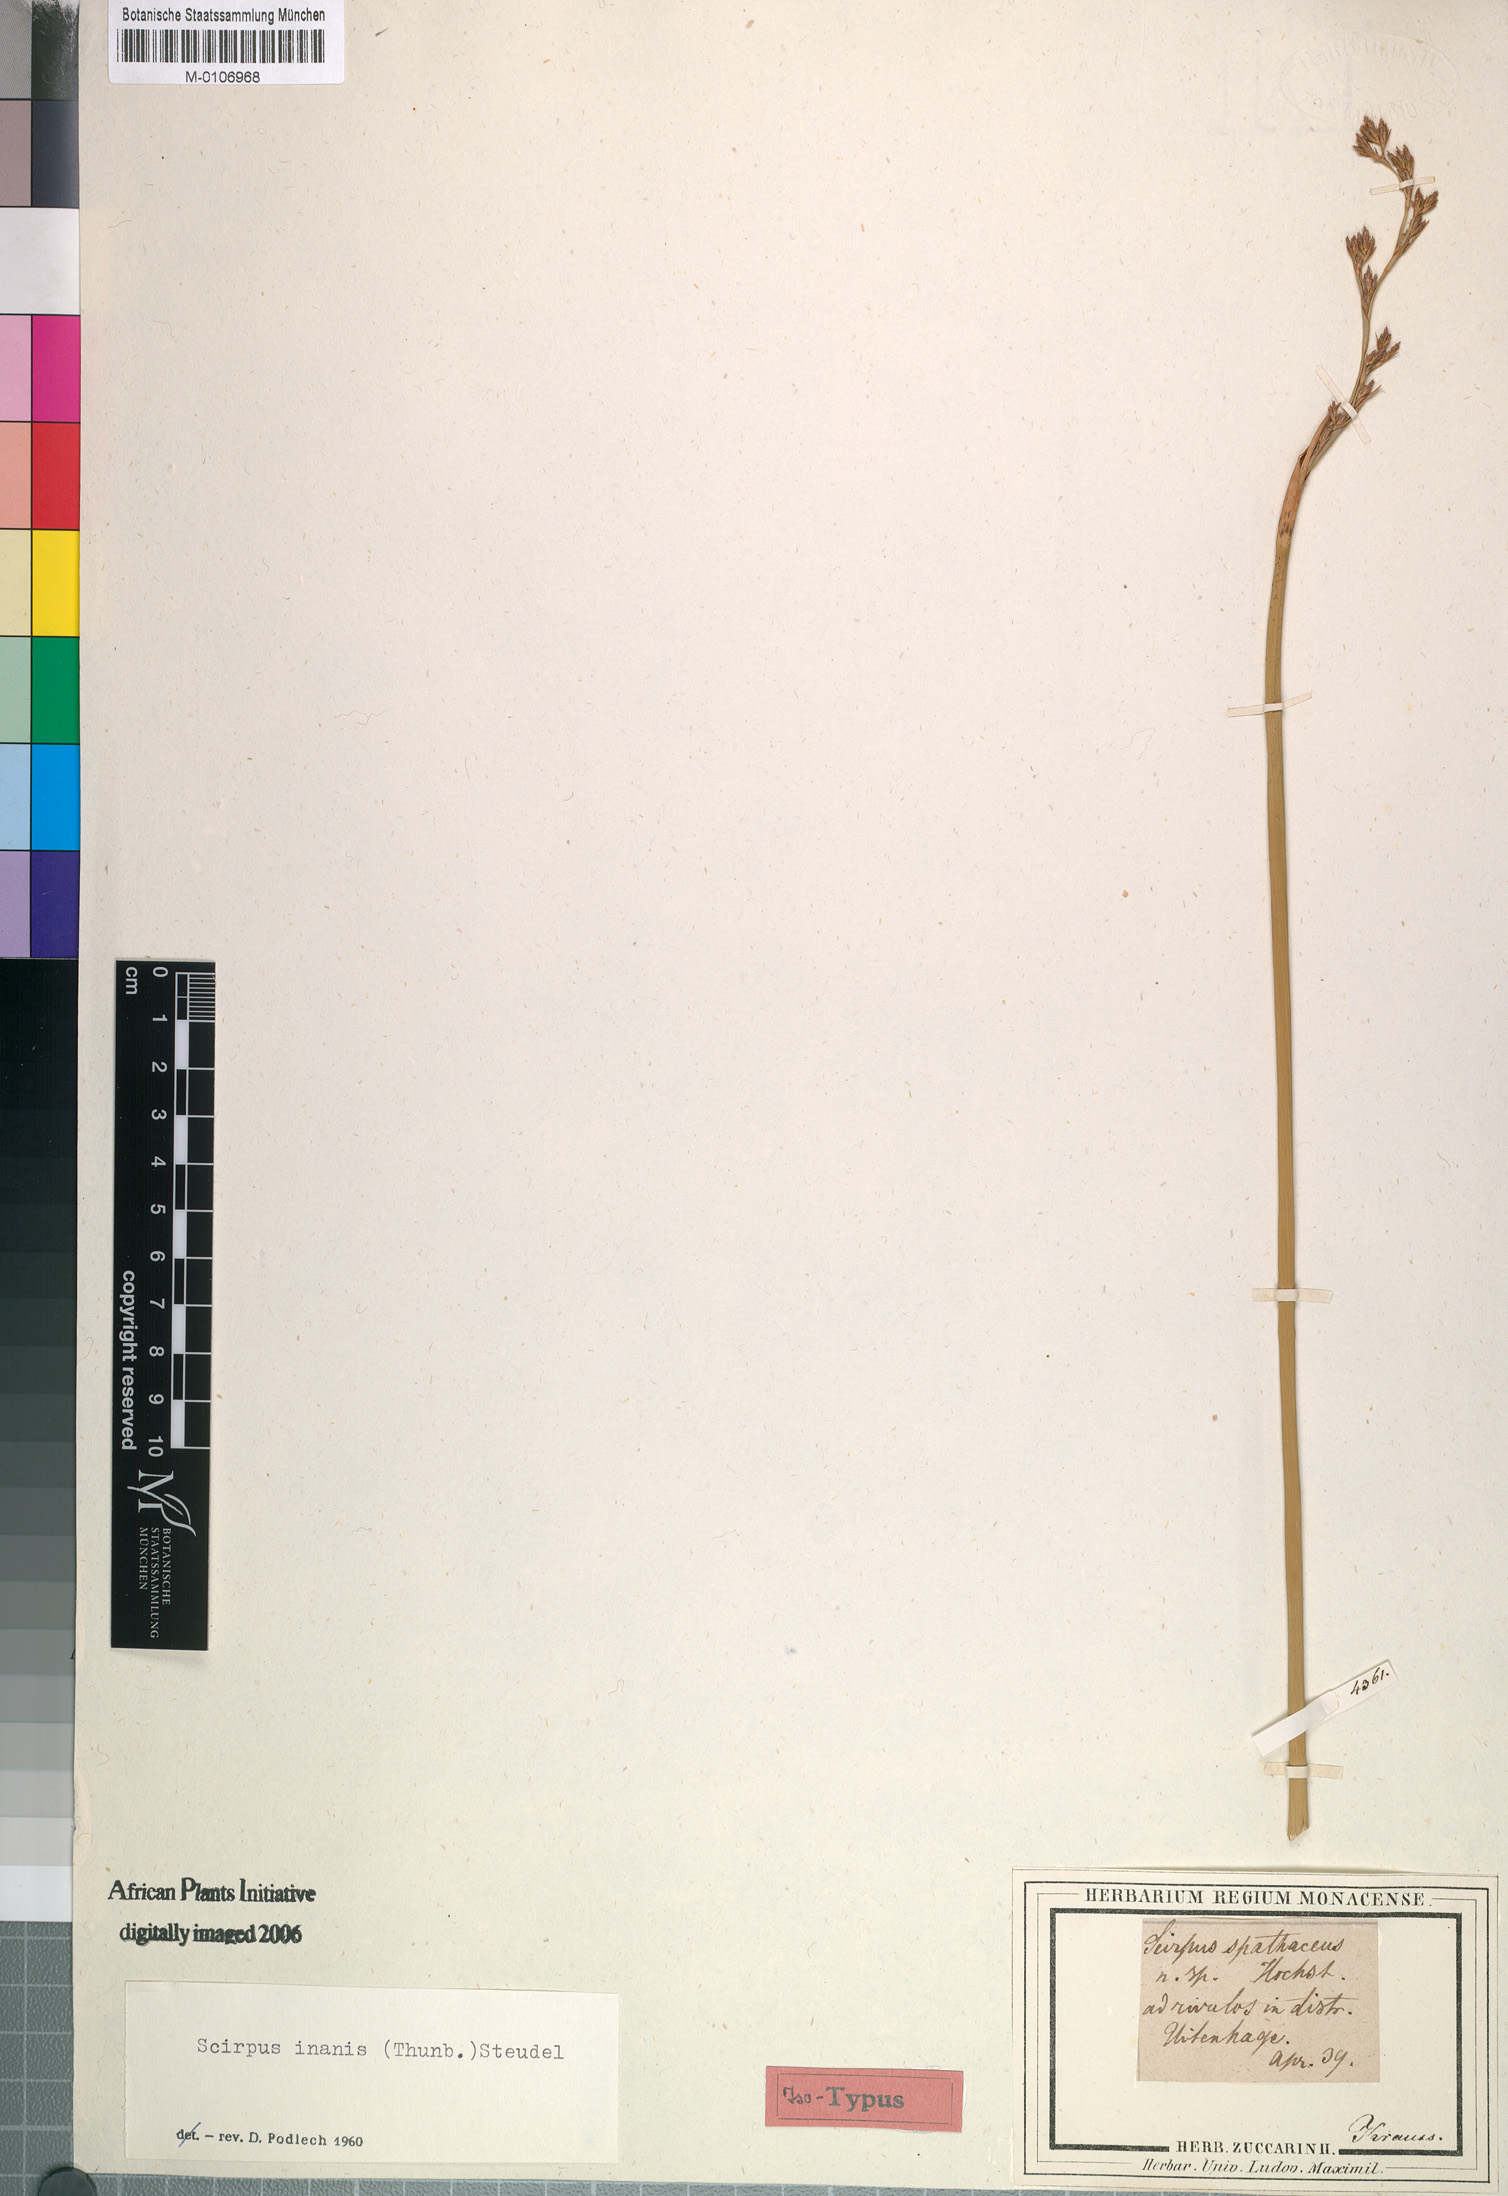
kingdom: Plantae
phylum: Tracheophyta
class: Liliopsida
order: Poales
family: Cyperaceae
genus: Pseudoschoenus
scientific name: Pseudoschoenus inanis
